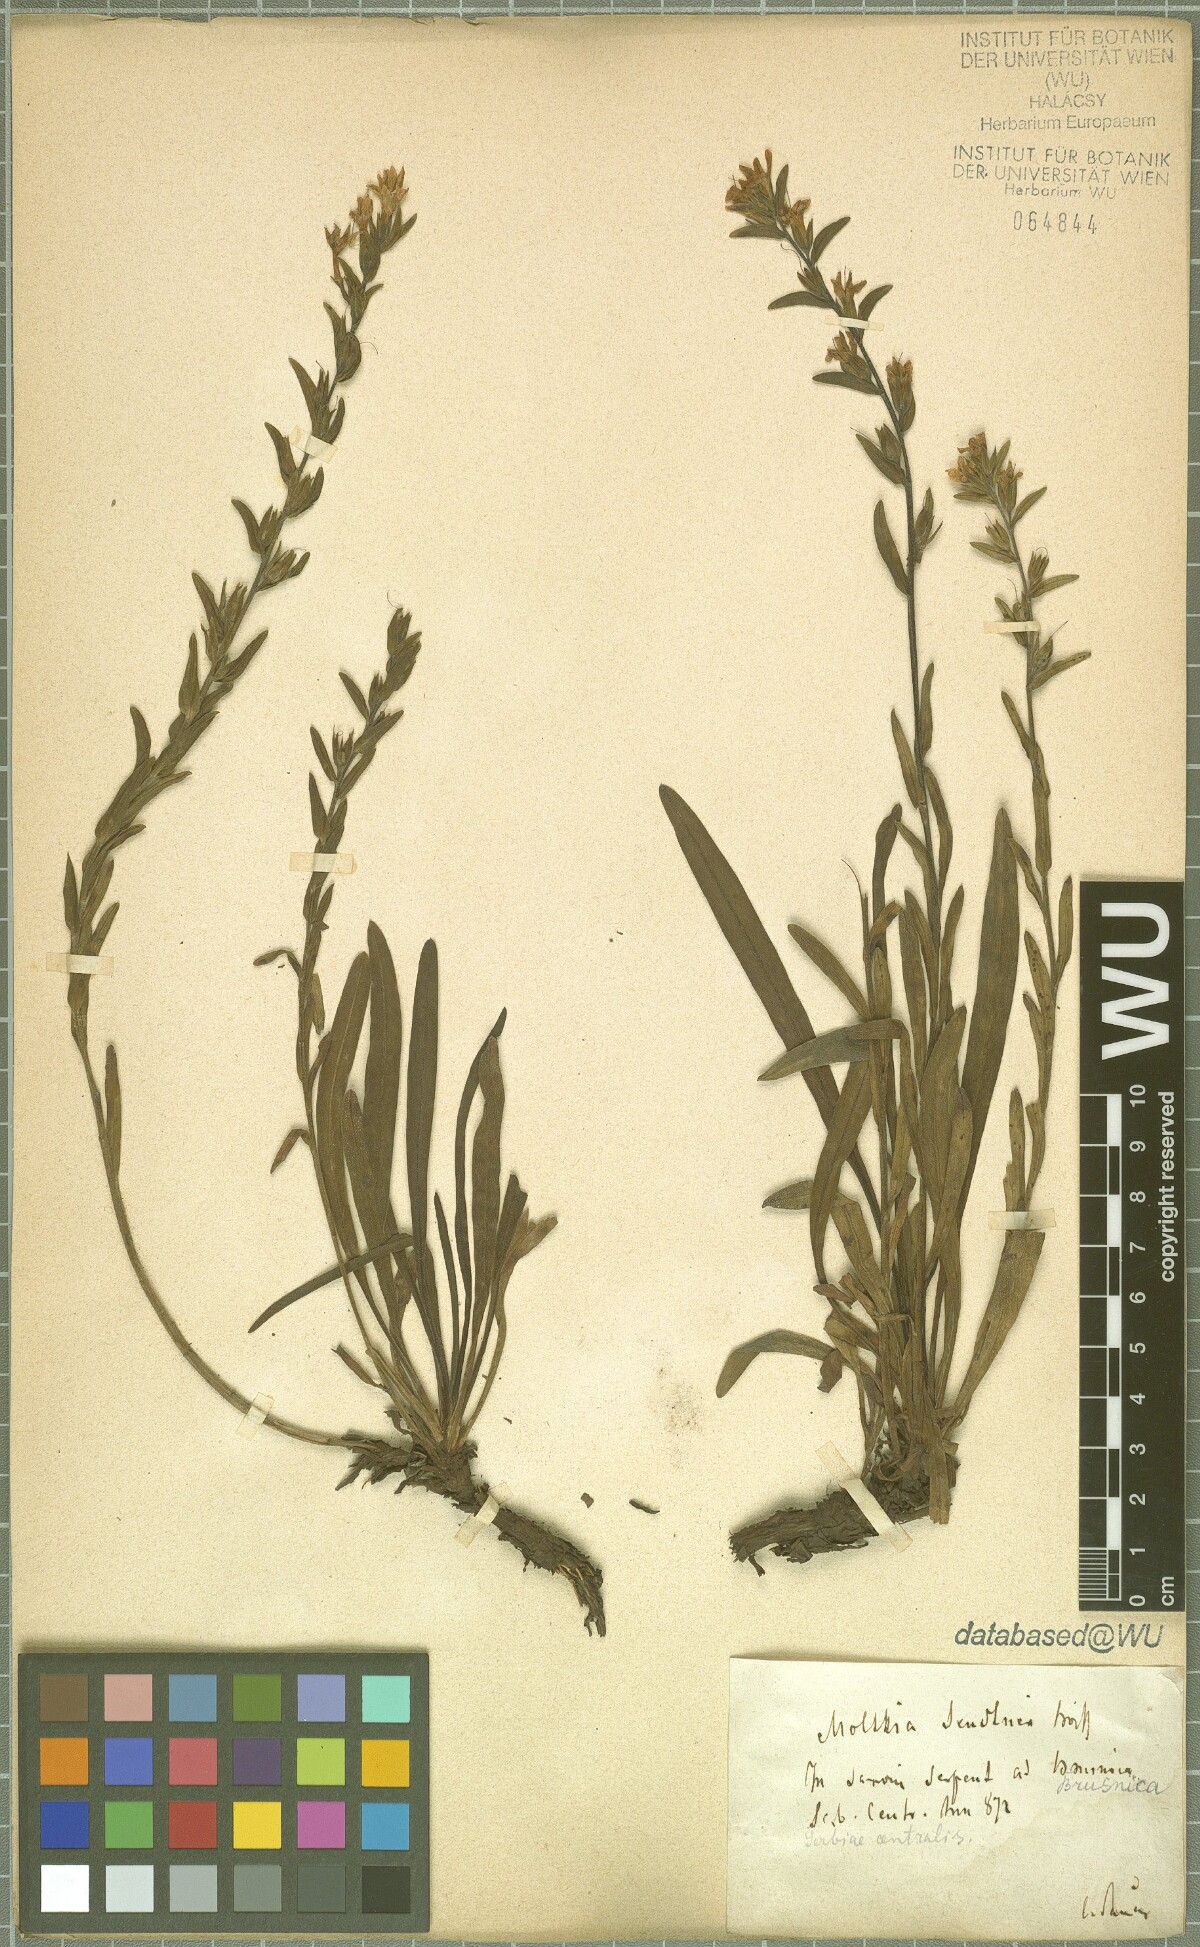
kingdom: Plantae
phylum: Tracheophyta
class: Magnoliopsida
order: Boraginales
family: Boraginaceae
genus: Halacsya
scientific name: Halacsya sendtneri
